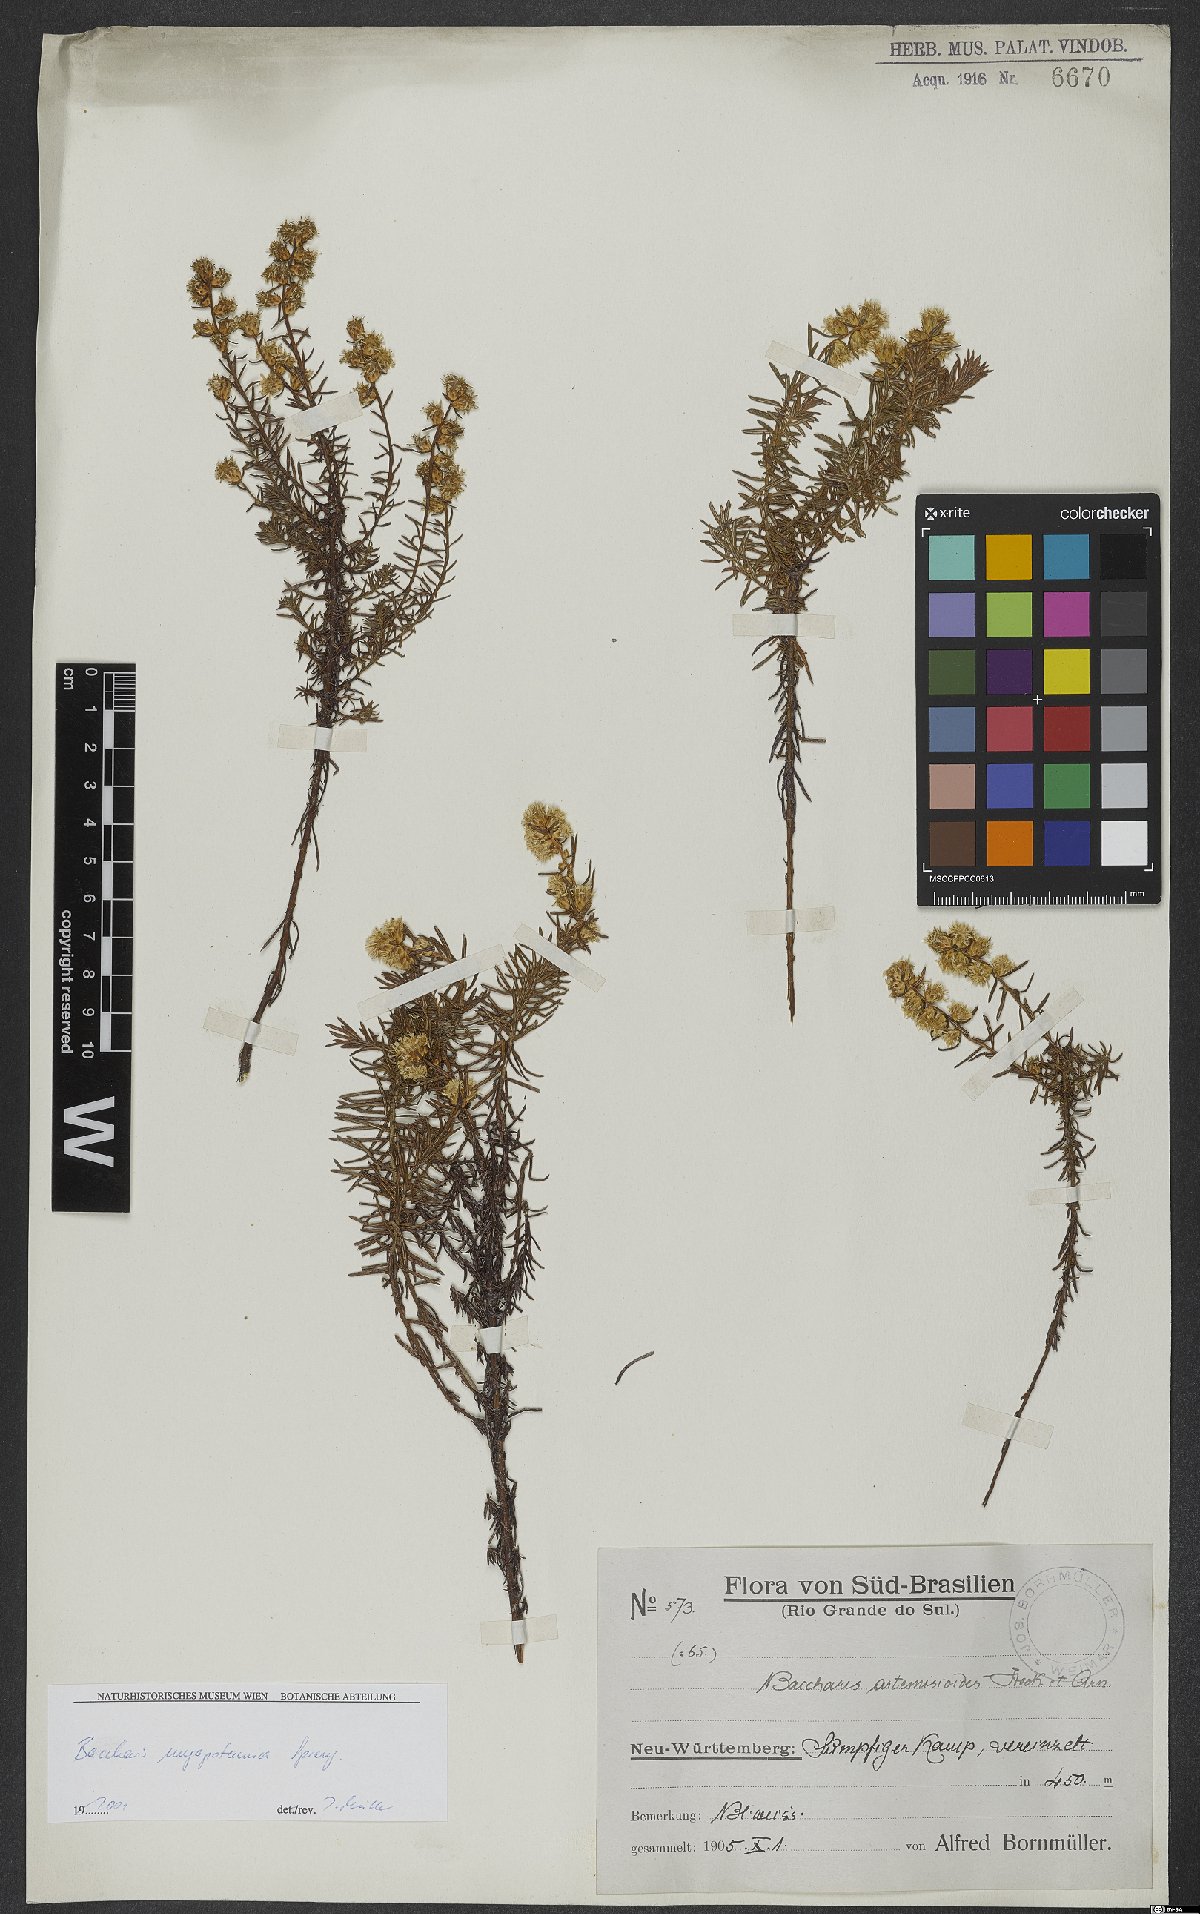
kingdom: Plantae
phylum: Tracheophyta
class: Magnoliopsida
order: Asterales
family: Asteraceae
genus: Baccharis
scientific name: Baccharis megapotamica
